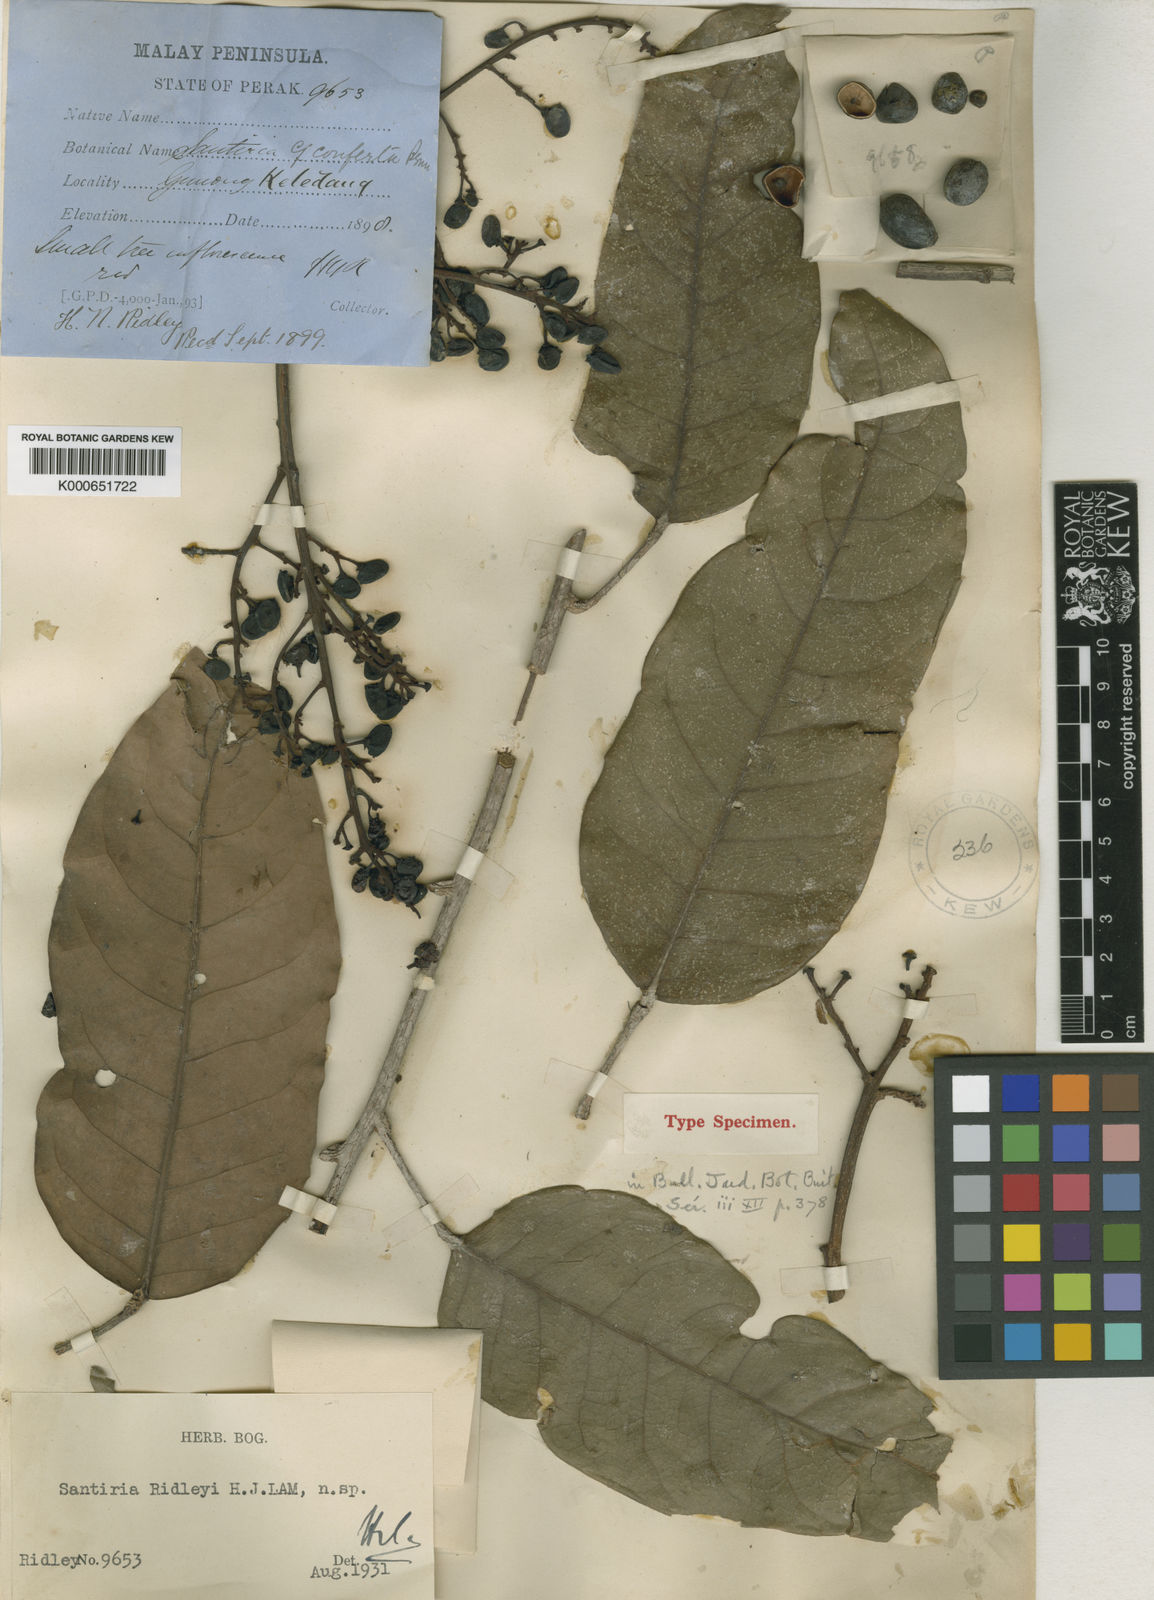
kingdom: Plantae
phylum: Tracheophyta
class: Magnoliopsida
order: Sapindales
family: Burseraceae
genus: Santiria
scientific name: Santiria ridleyi
